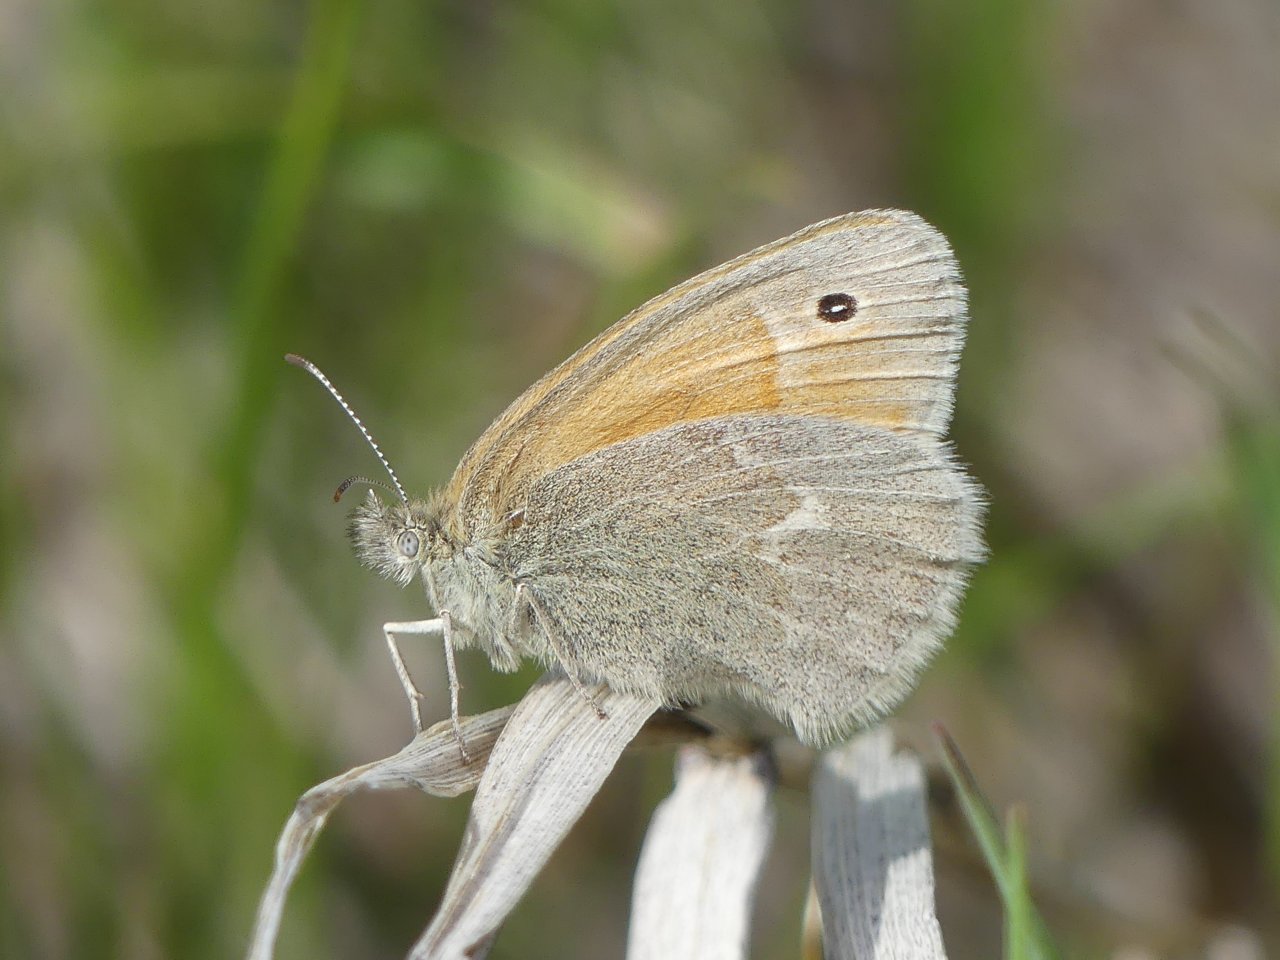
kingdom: Animalia
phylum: Arthropoda
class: Insecta
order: Lepidoptera
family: Nymphalidae
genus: Coenonympha
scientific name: Coenonympha tullia
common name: Large Heath
